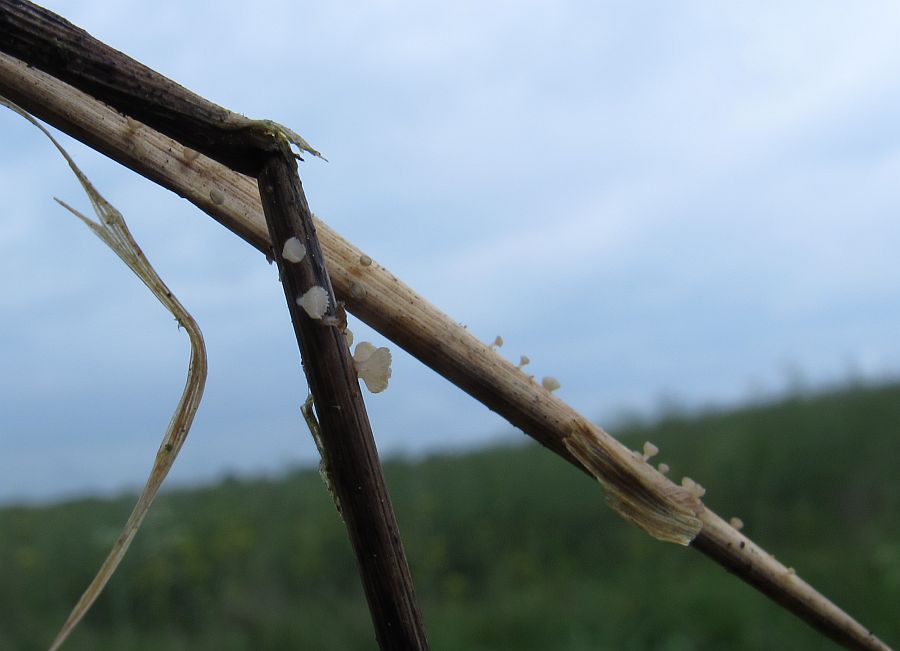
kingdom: Fungi
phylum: Ascomycota
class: Leotiomycetes
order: Helotiales
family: Helotiaceae
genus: Cyathicula
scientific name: Cyathicula culmicola
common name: græs-stilkskive
